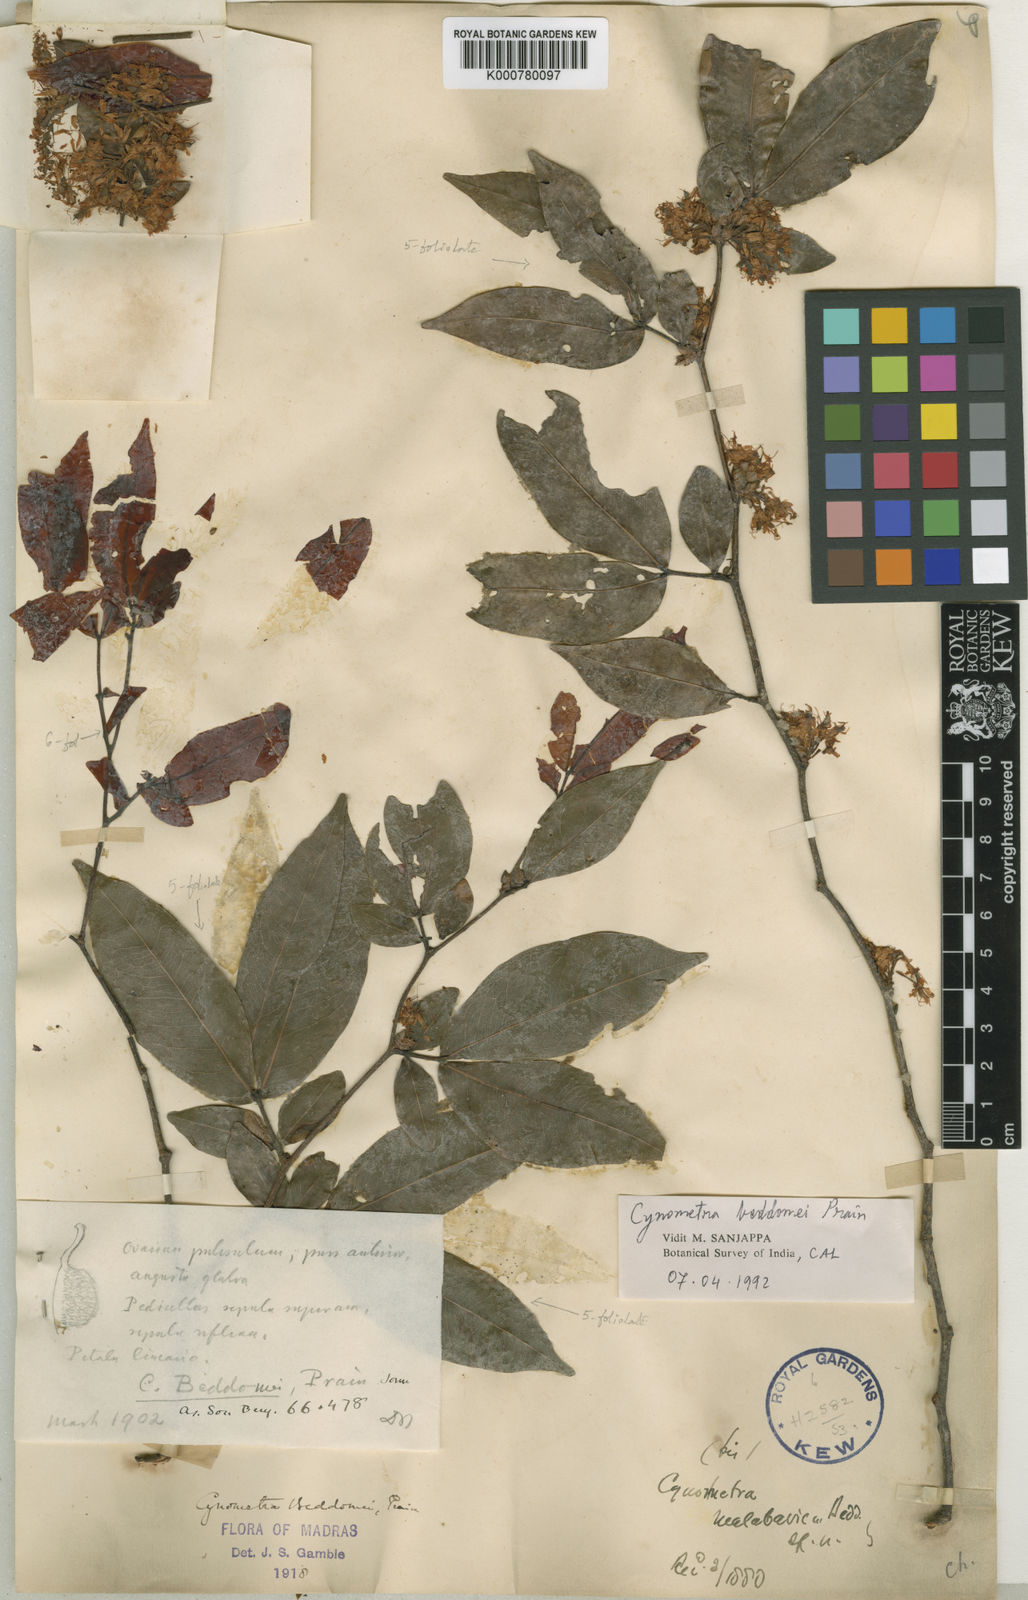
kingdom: Plantae
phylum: Tracheophyta
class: Magnoliopsida
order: Fabales
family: Fabaceae
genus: Cynometra
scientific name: Cynometra beddomei
